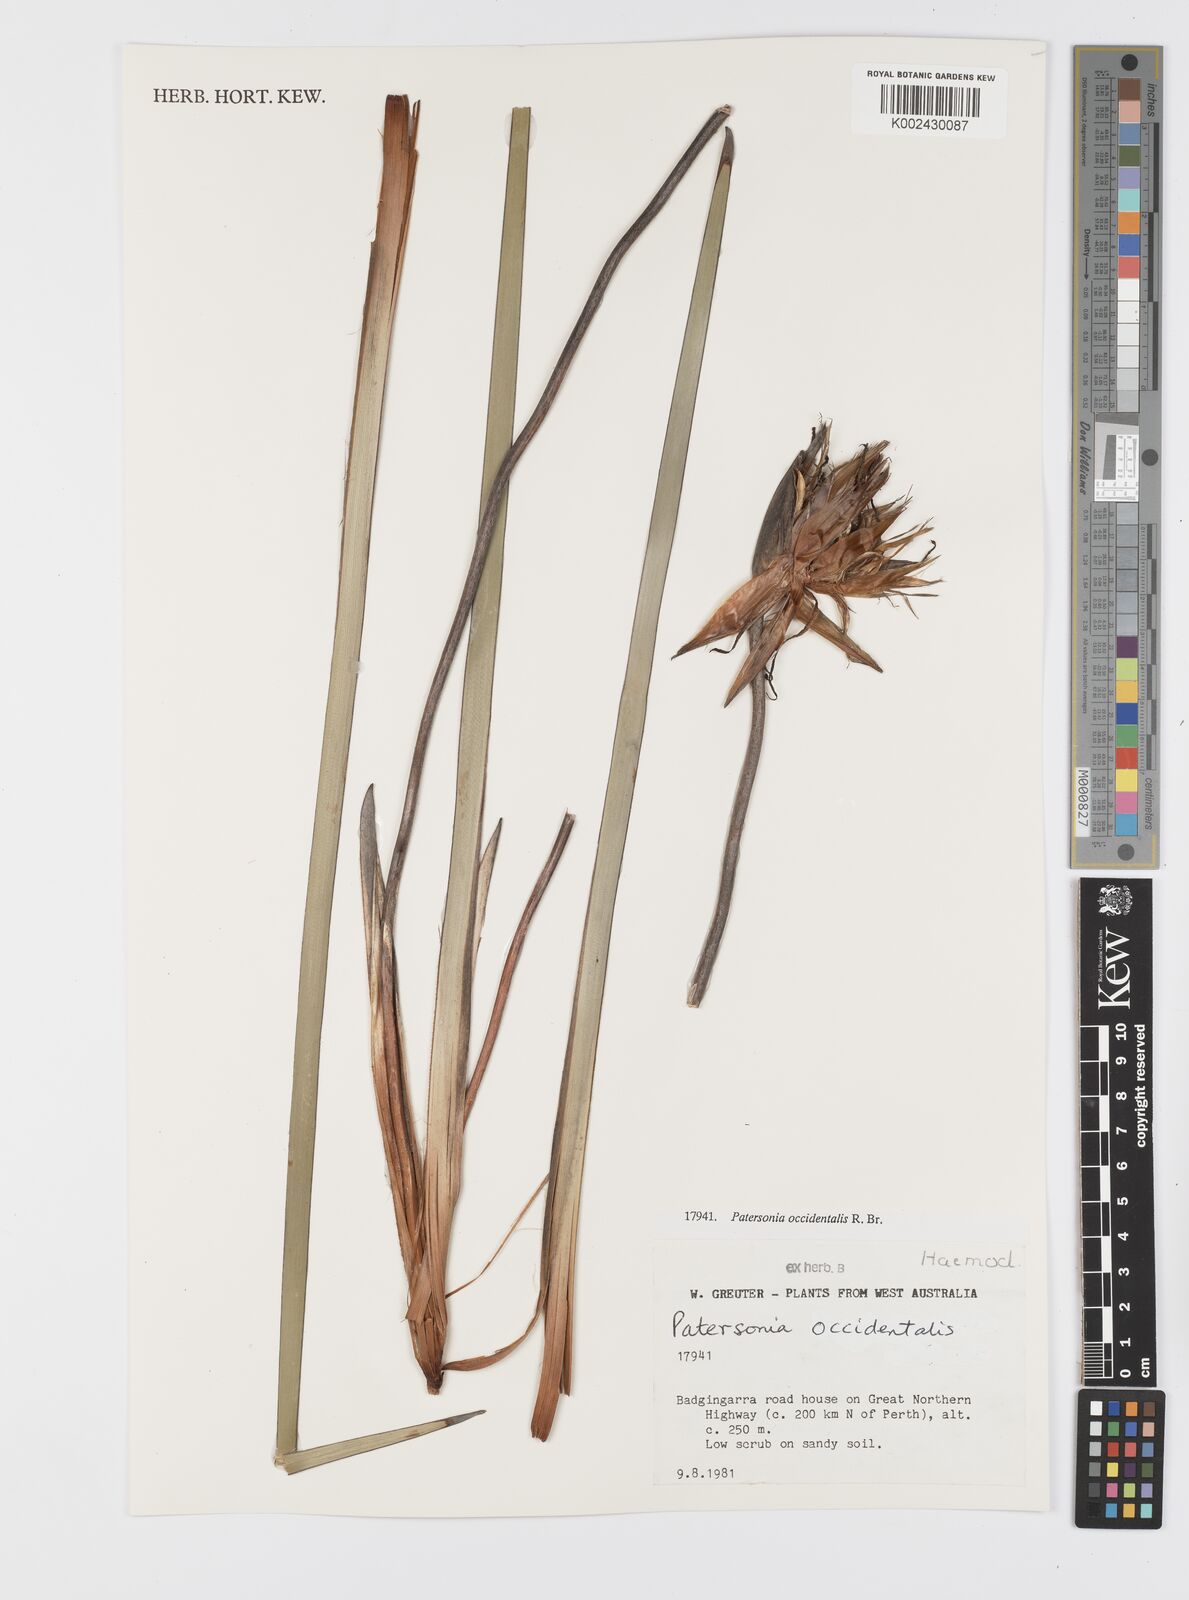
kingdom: Plantae
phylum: Tracheophyta
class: Liliopsida
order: Asparagales
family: Iridaceae
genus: Patersonia
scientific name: Patersonia occidentalis
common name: Long purple-flag
